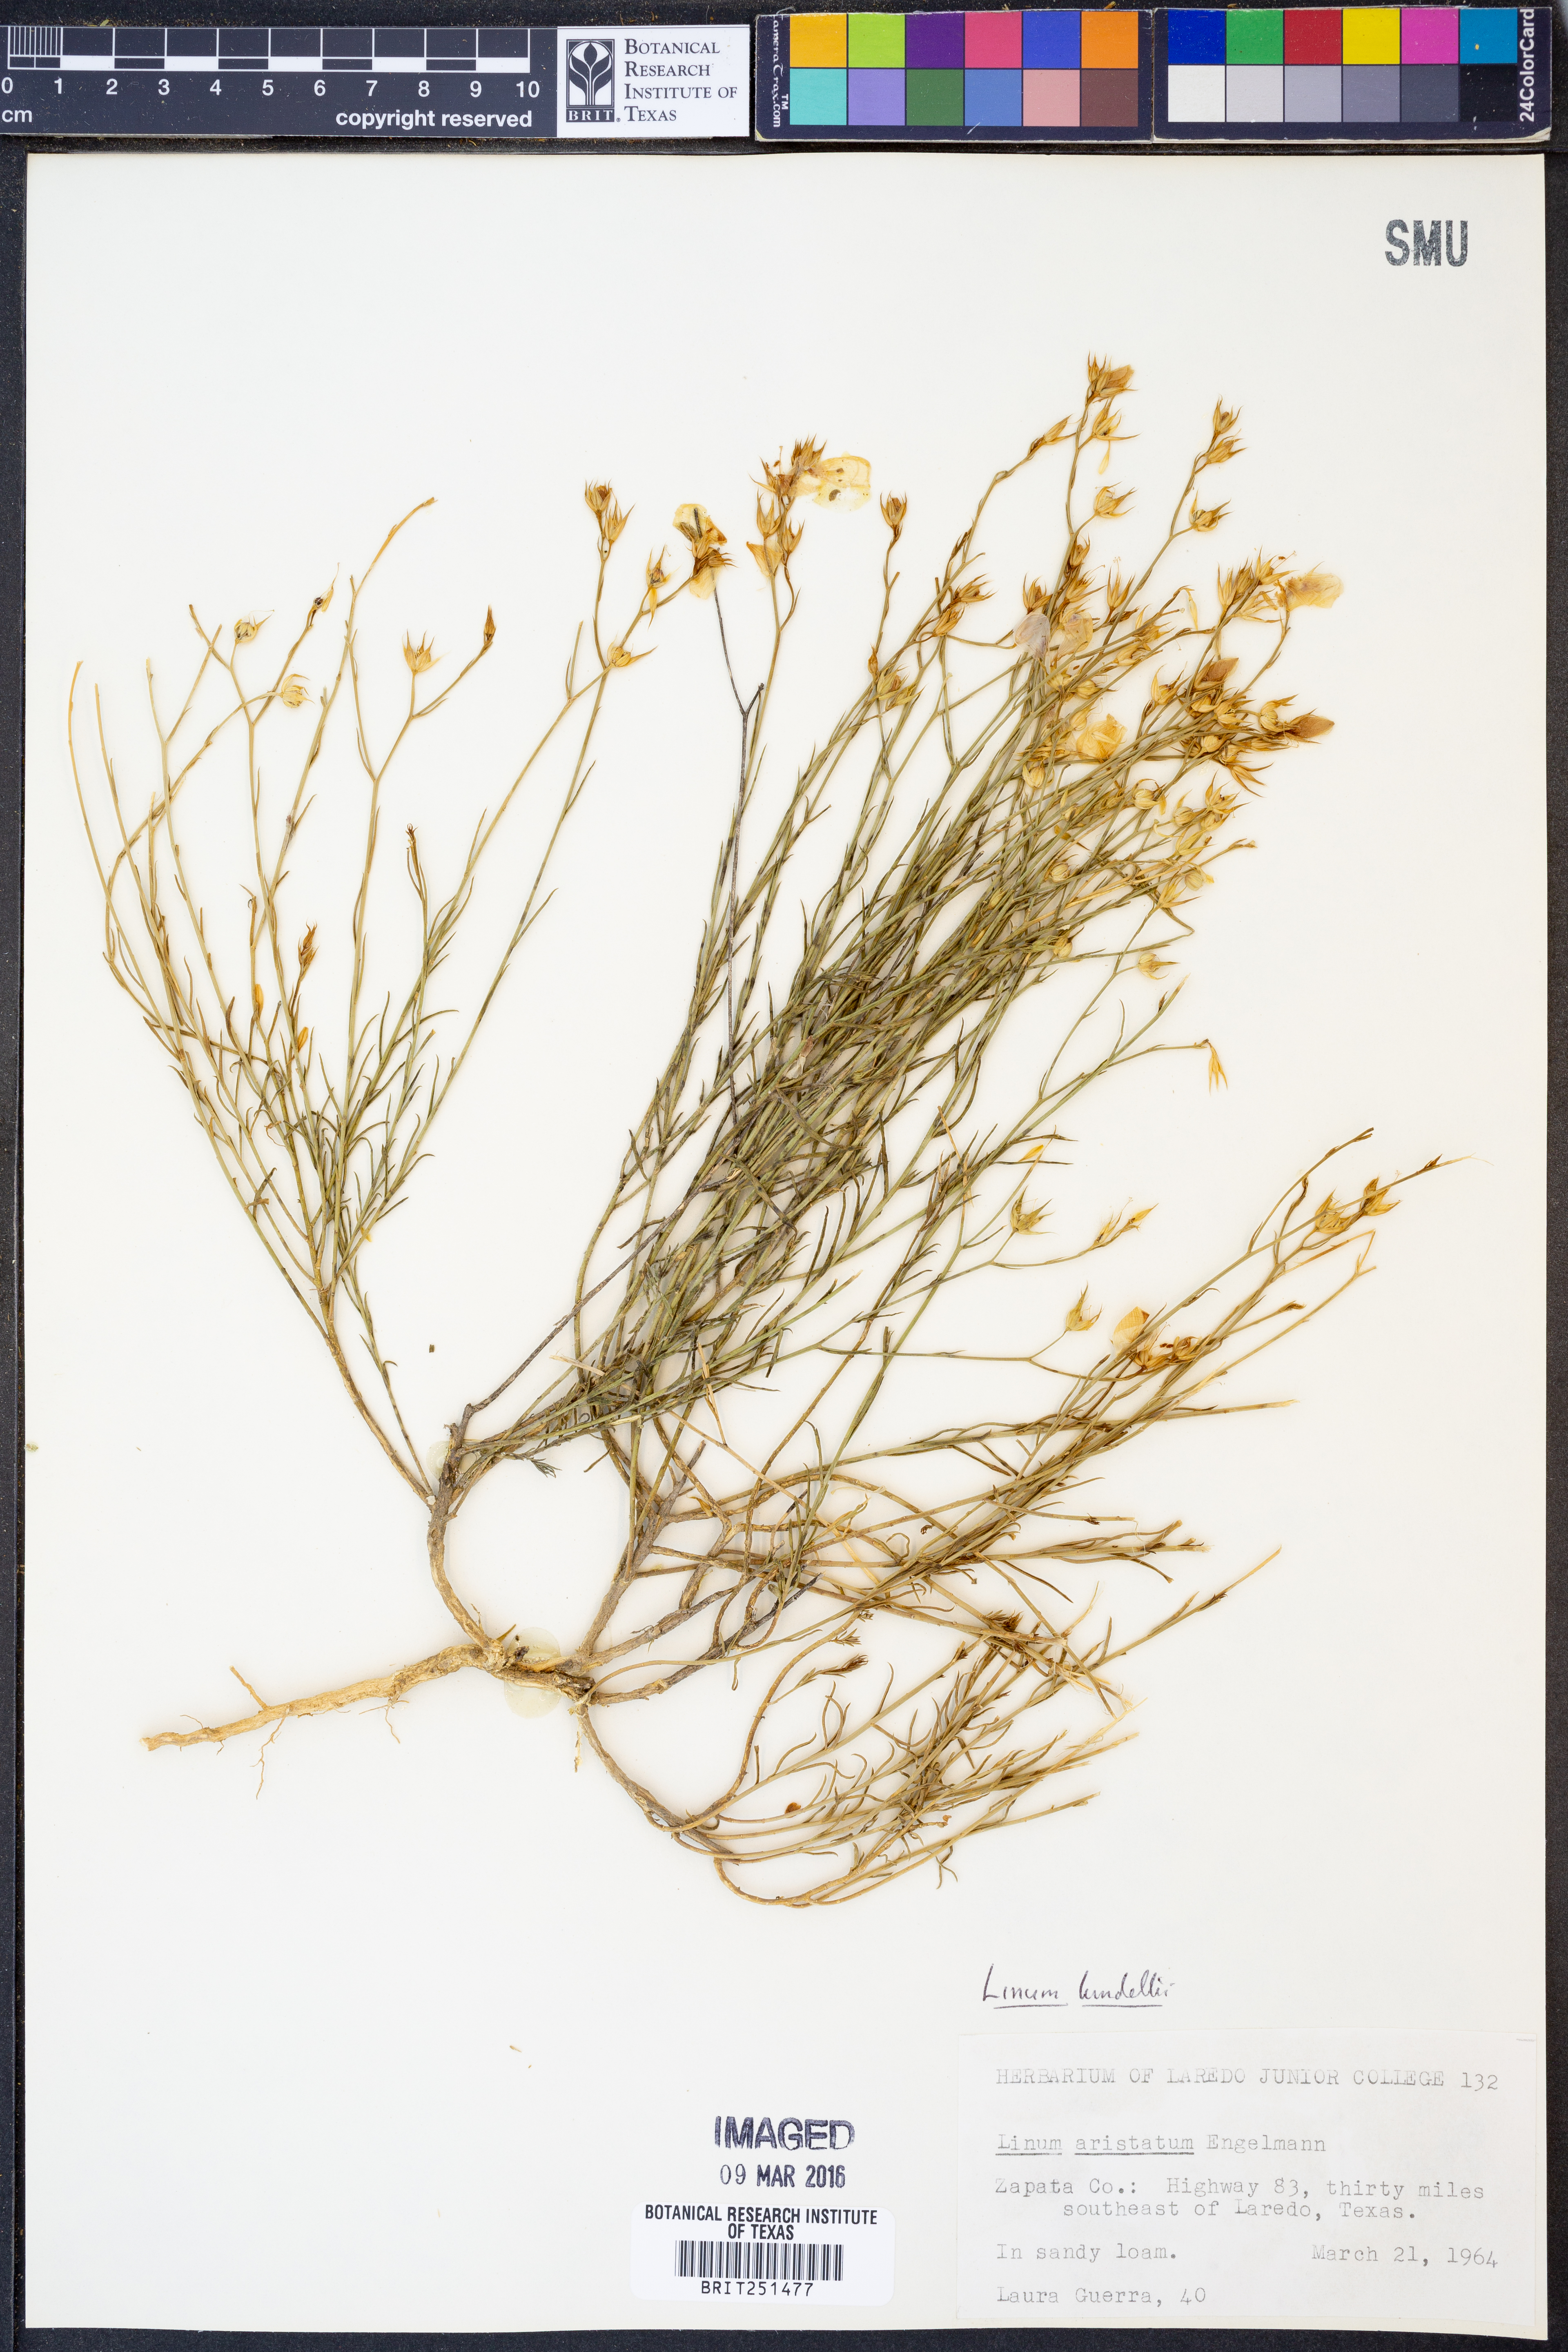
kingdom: Plantae
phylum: Tracheophyta
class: Magnoliopsida
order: Malpighiales
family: Linaceae
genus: Linum
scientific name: Linum lundellii
